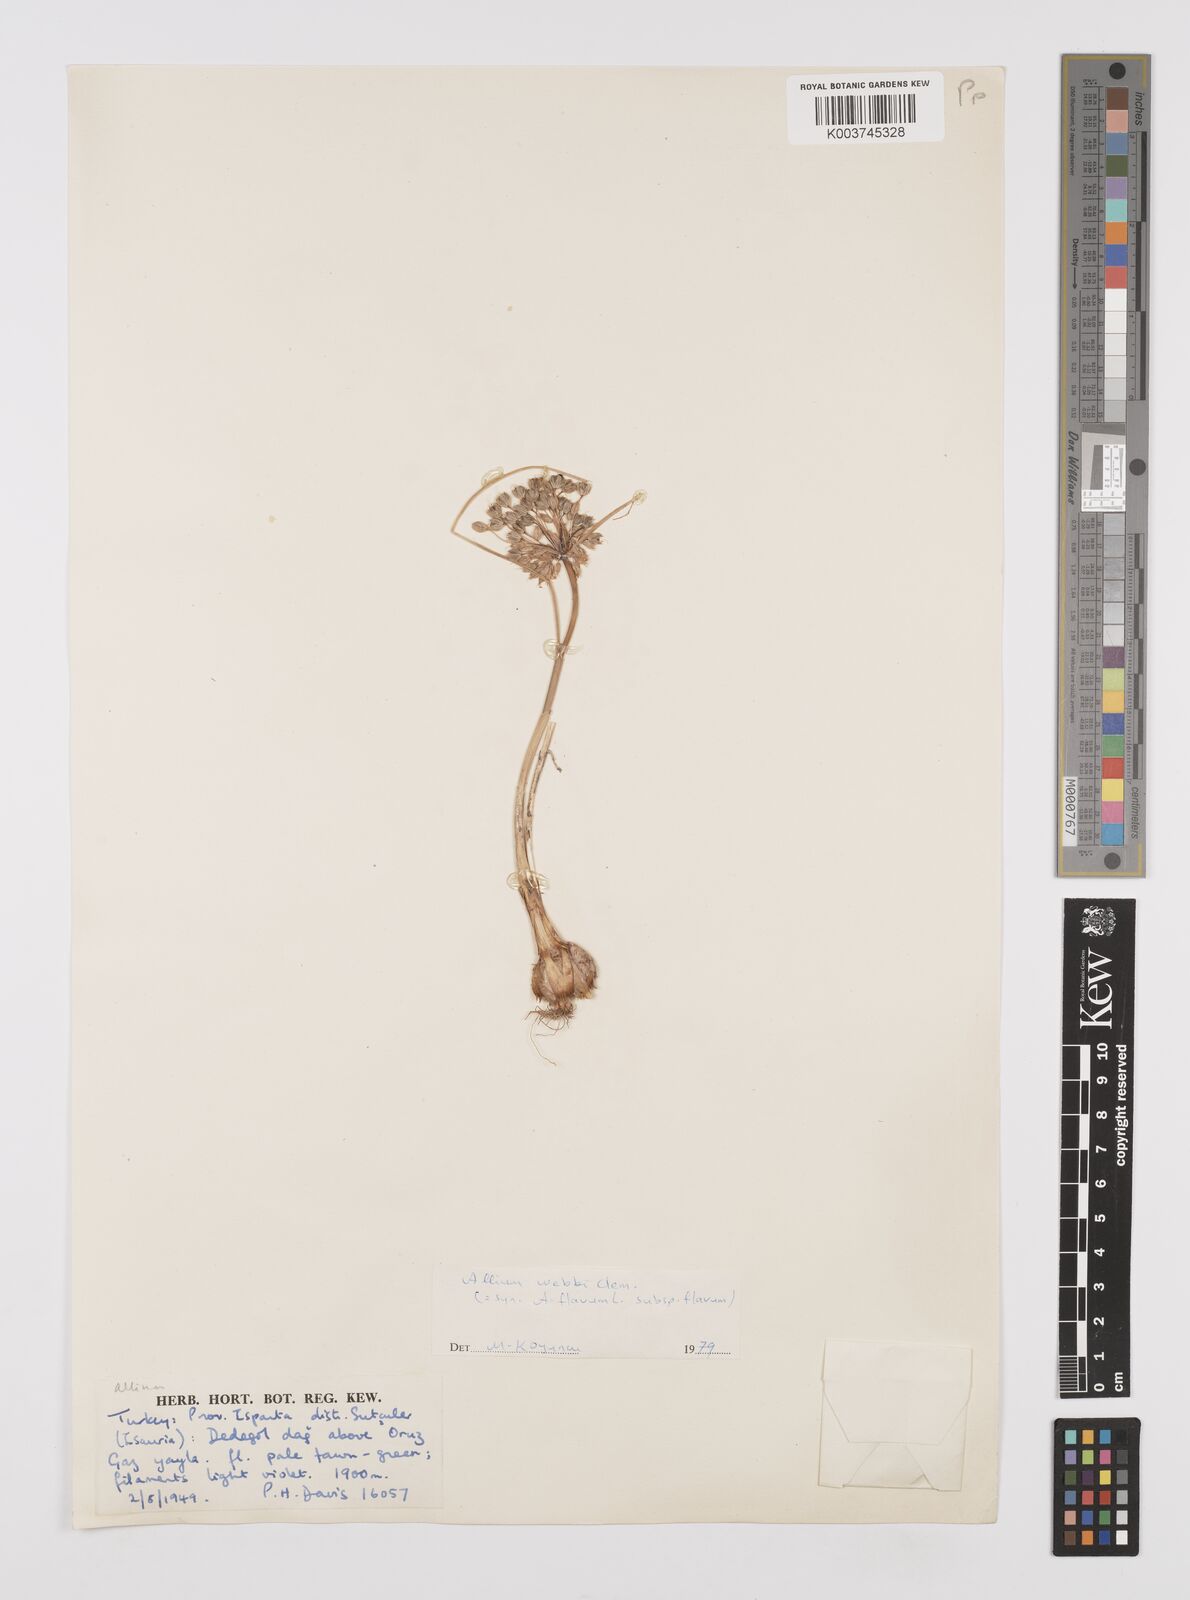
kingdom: Plantae
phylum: Tracheophyta
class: Liliopsida
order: Asparagales
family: Amaryllidaceae
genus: Allium
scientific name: Allium flavum
